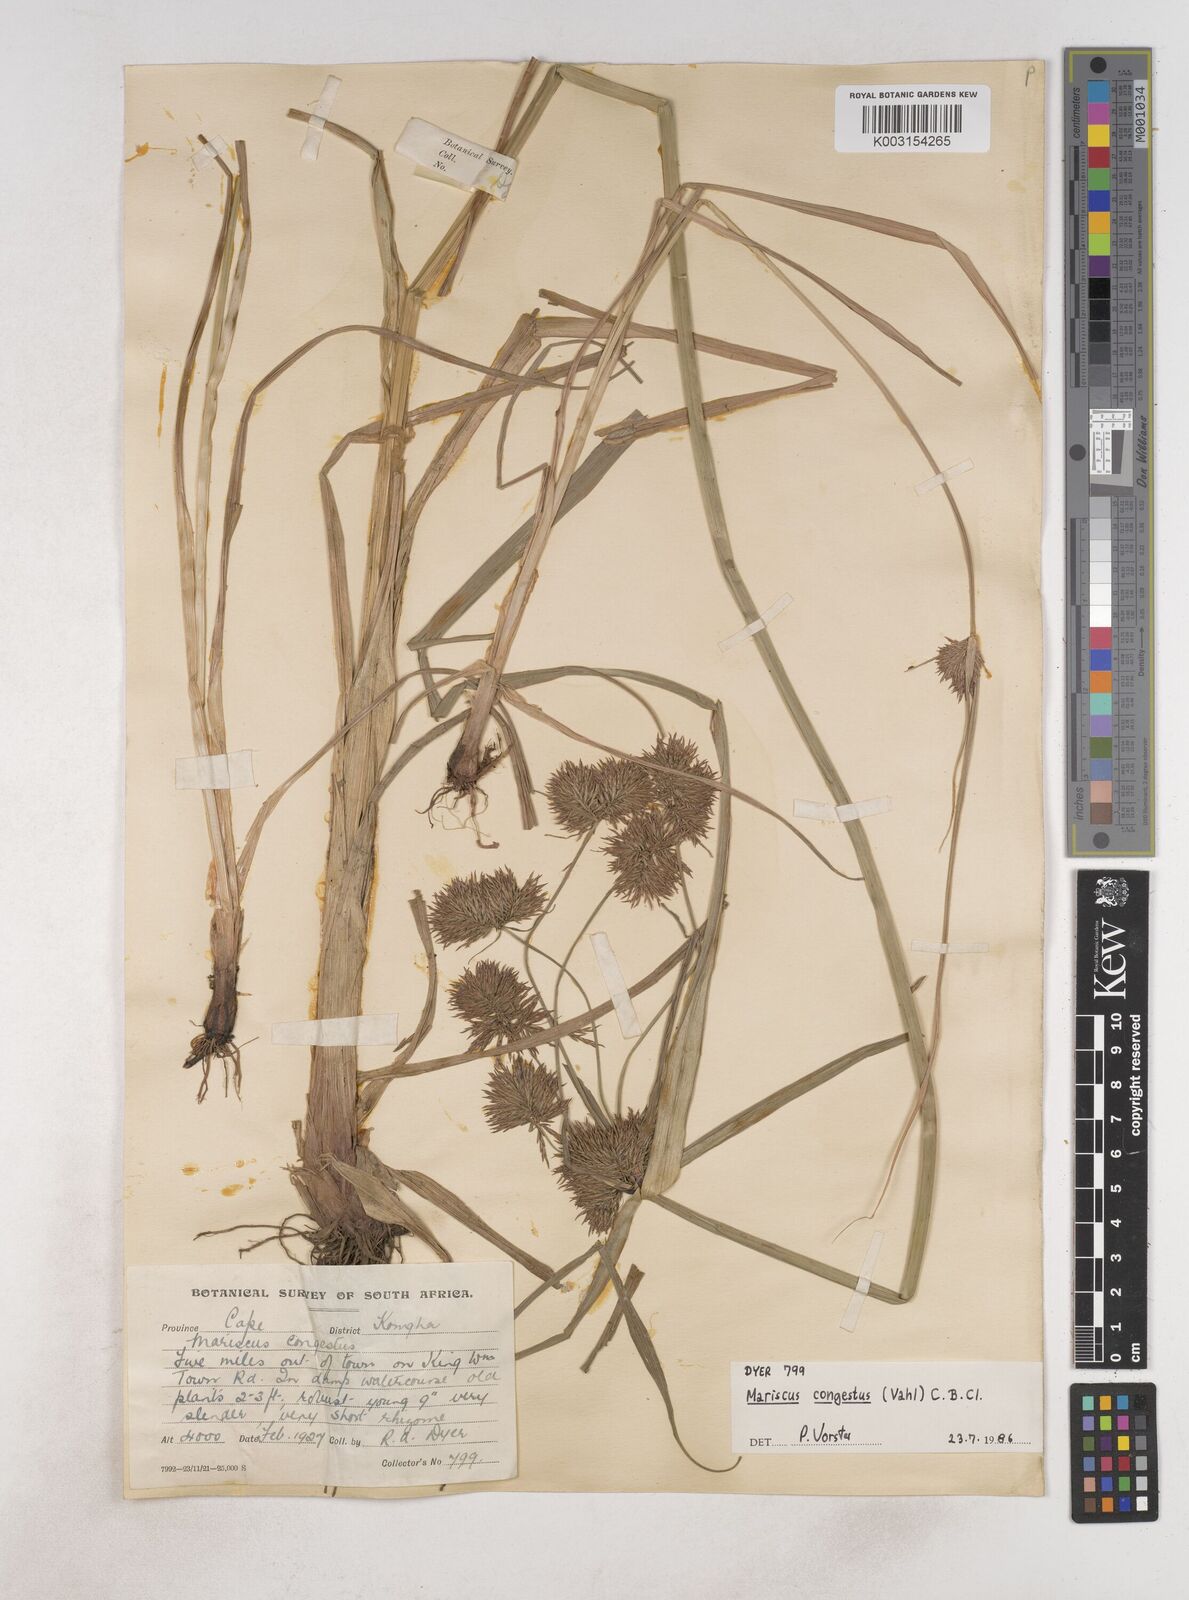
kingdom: Plantae
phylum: Tracheophyta
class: Liliopsida
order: Poales
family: Cyperaceae
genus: Cyperus
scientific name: Cyperus congestus
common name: Dense flat sedge
